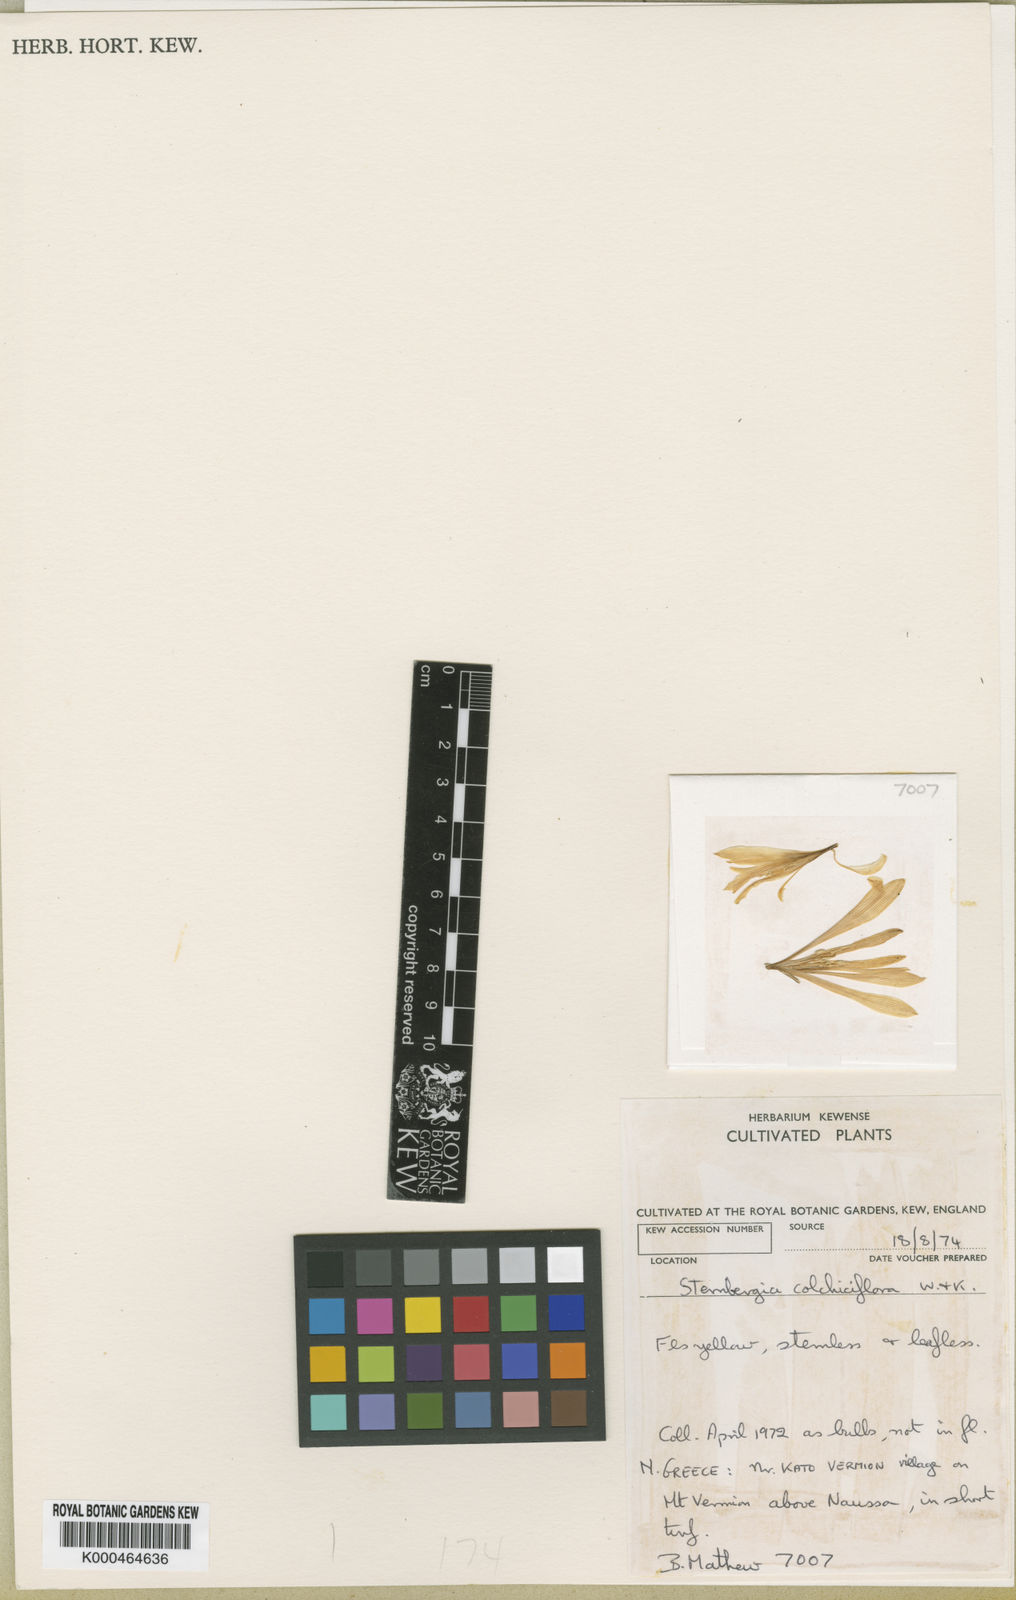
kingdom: Plantae
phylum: Tracheophyta
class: Liliopsida
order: Asparagales
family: Amaryllidaceae
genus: Sternbergia
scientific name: Sternbergia colchiciflora
